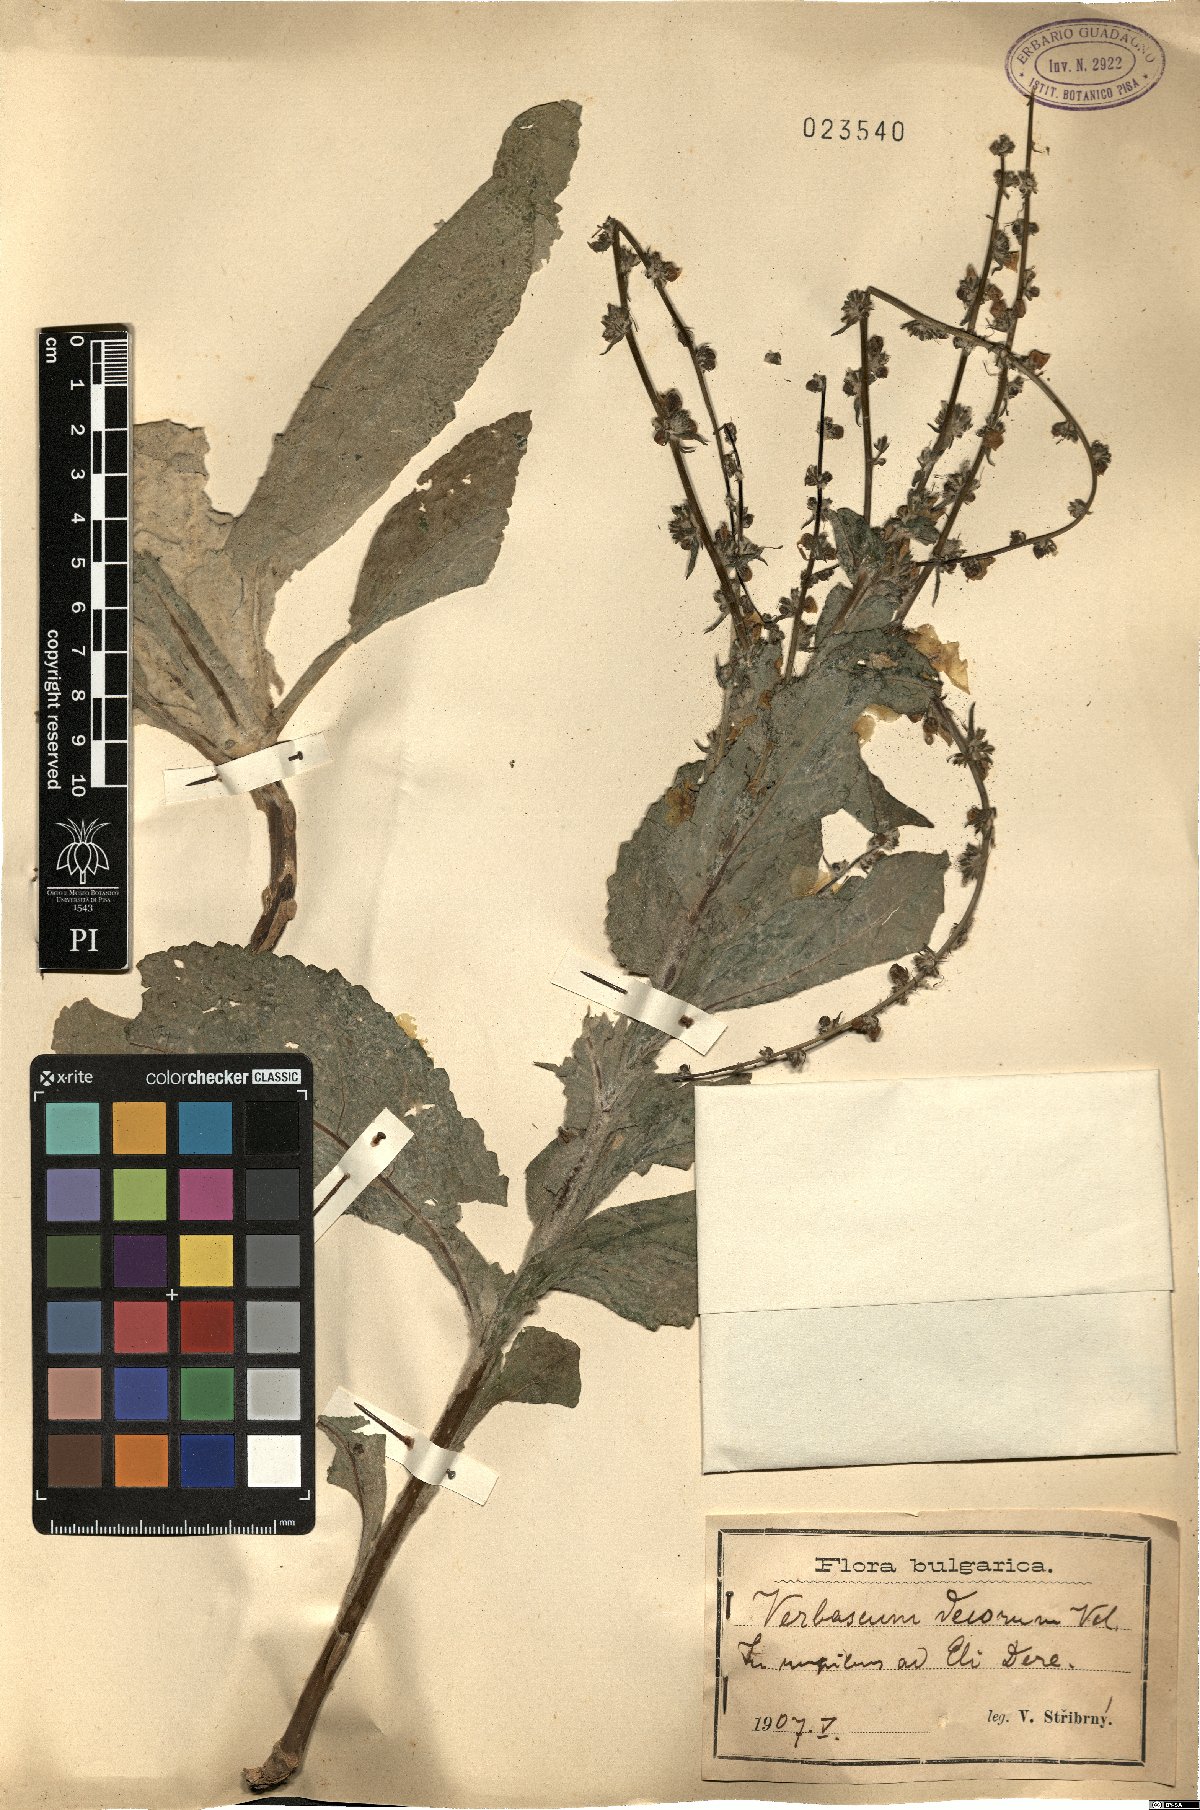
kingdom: Plantae
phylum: Tracheophyta
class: Magnoliopsida
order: Lamiales
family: Scrophulariaceae
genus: Verbascum
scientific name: Verbascum decorum
